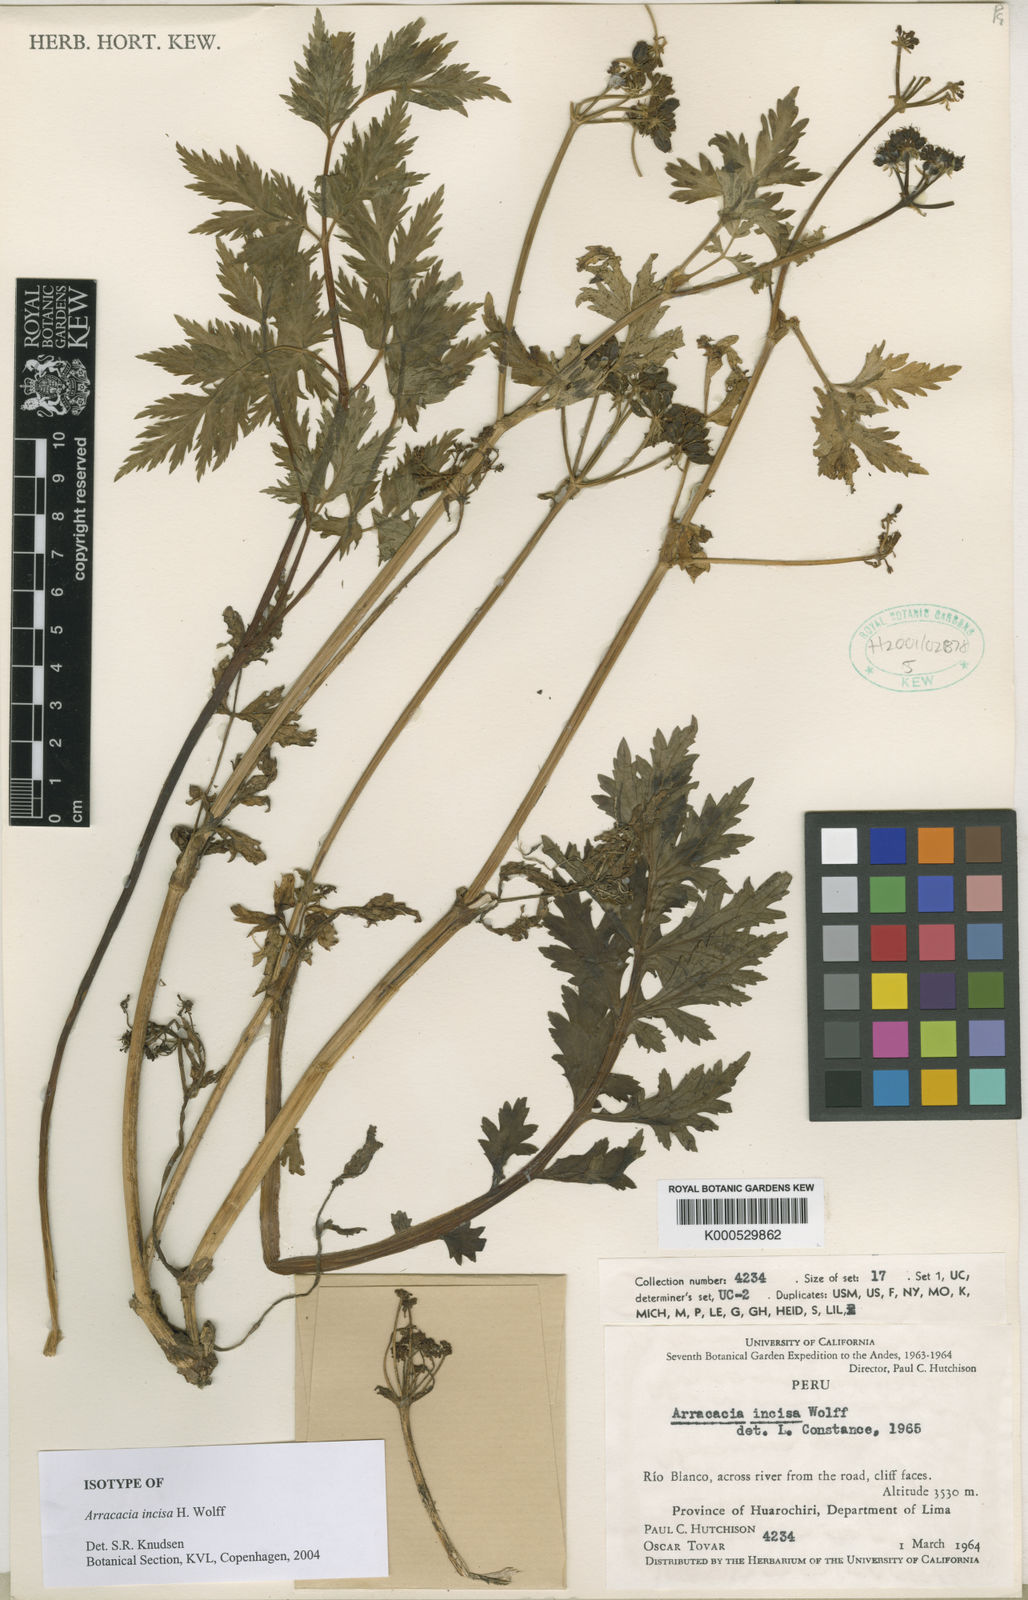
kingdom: Plantae
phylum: Tracheophyta
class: Magnoliopsida
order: Apiales
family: Apiaceae
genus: Arracacia
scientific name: Arracacia incisa
